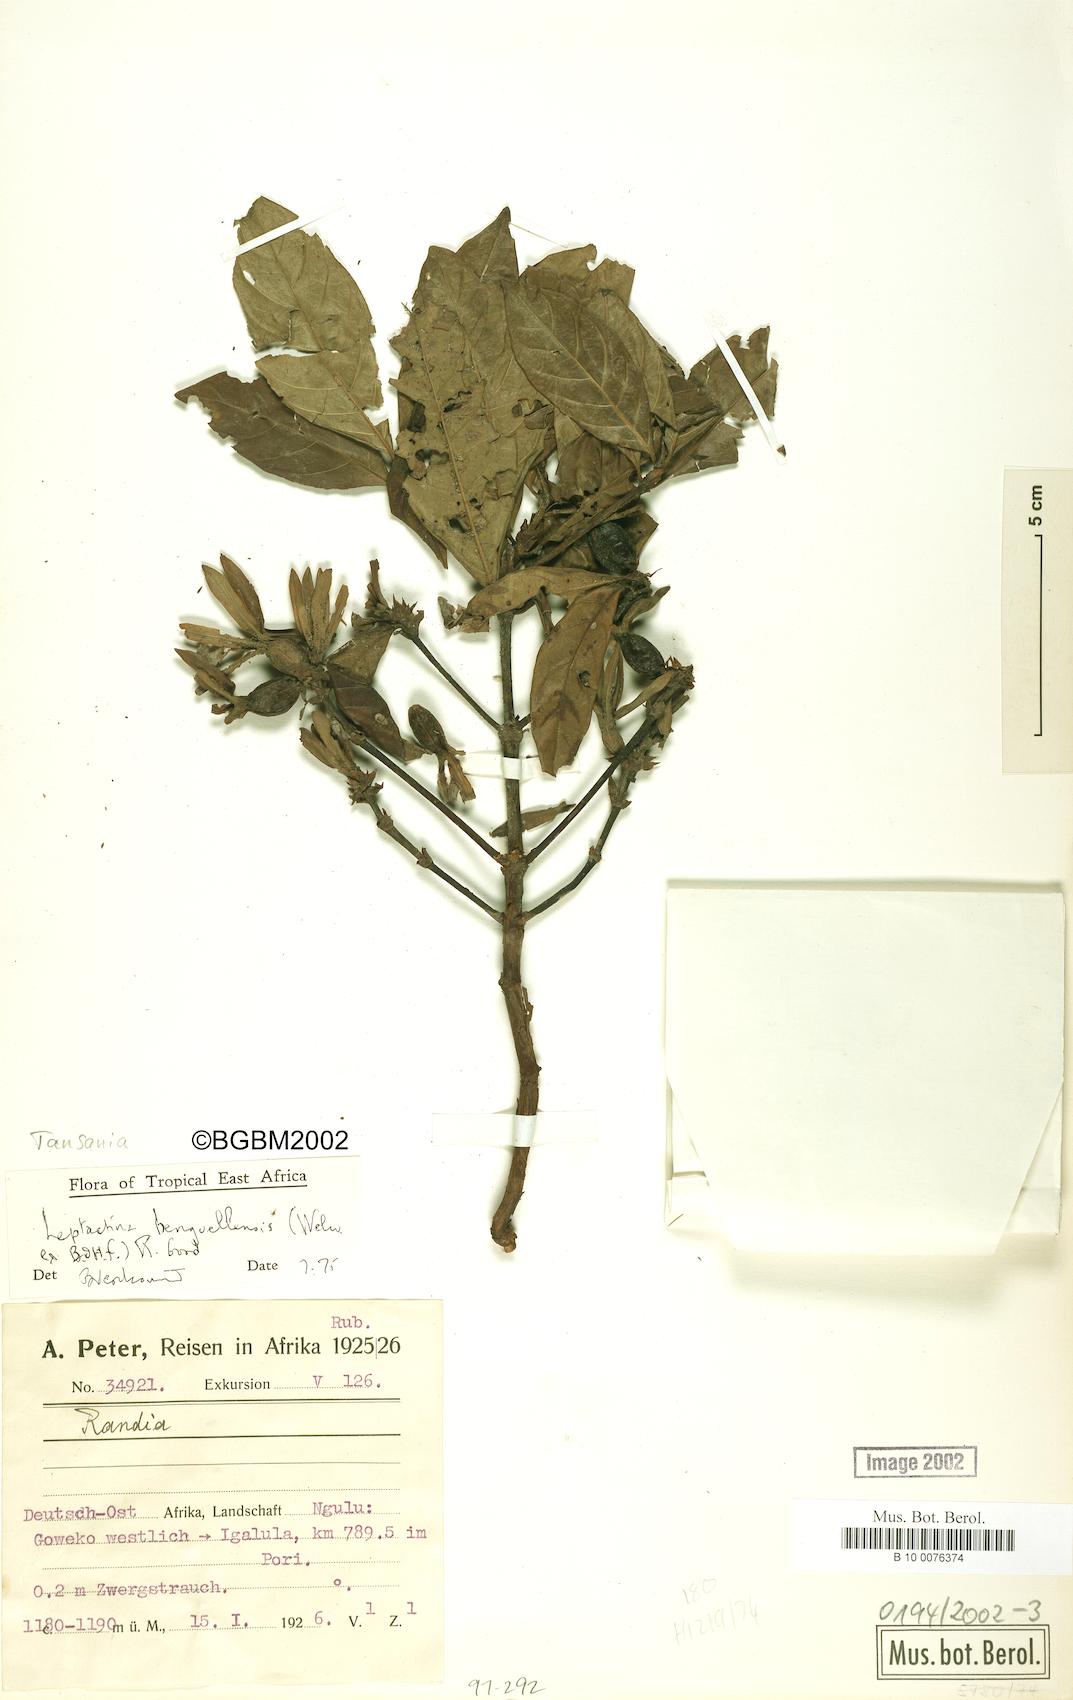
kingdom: Plantae
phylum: Tracheophyta
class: Magnoliopsida
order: Gentianales
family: Rubiaceae
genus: Leptactina
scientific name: Leptactina benguelensis
